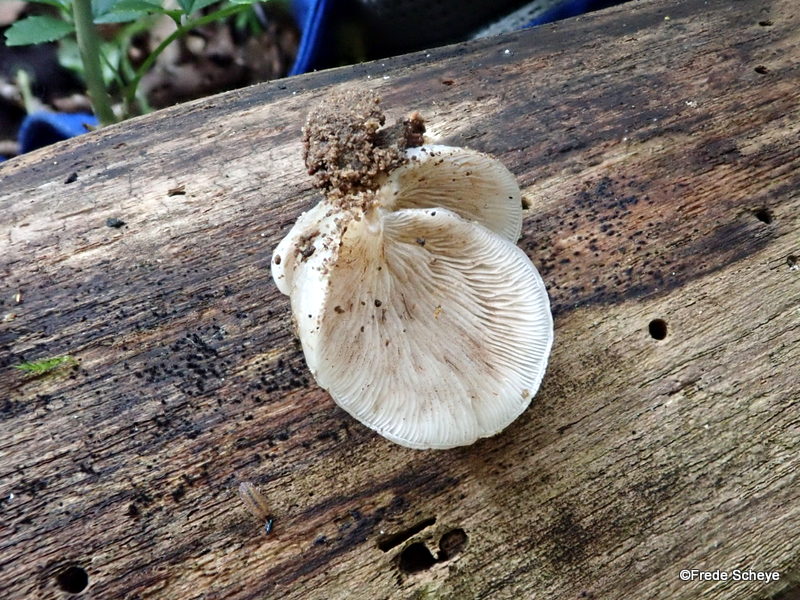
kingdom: Fungi
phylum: Basidiomycota
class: Agaricomycetes
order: Agaricales
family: Crepidotaceae
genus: Crepidotus
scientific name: Crepidotus mollis
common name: blød muslingesvamp
